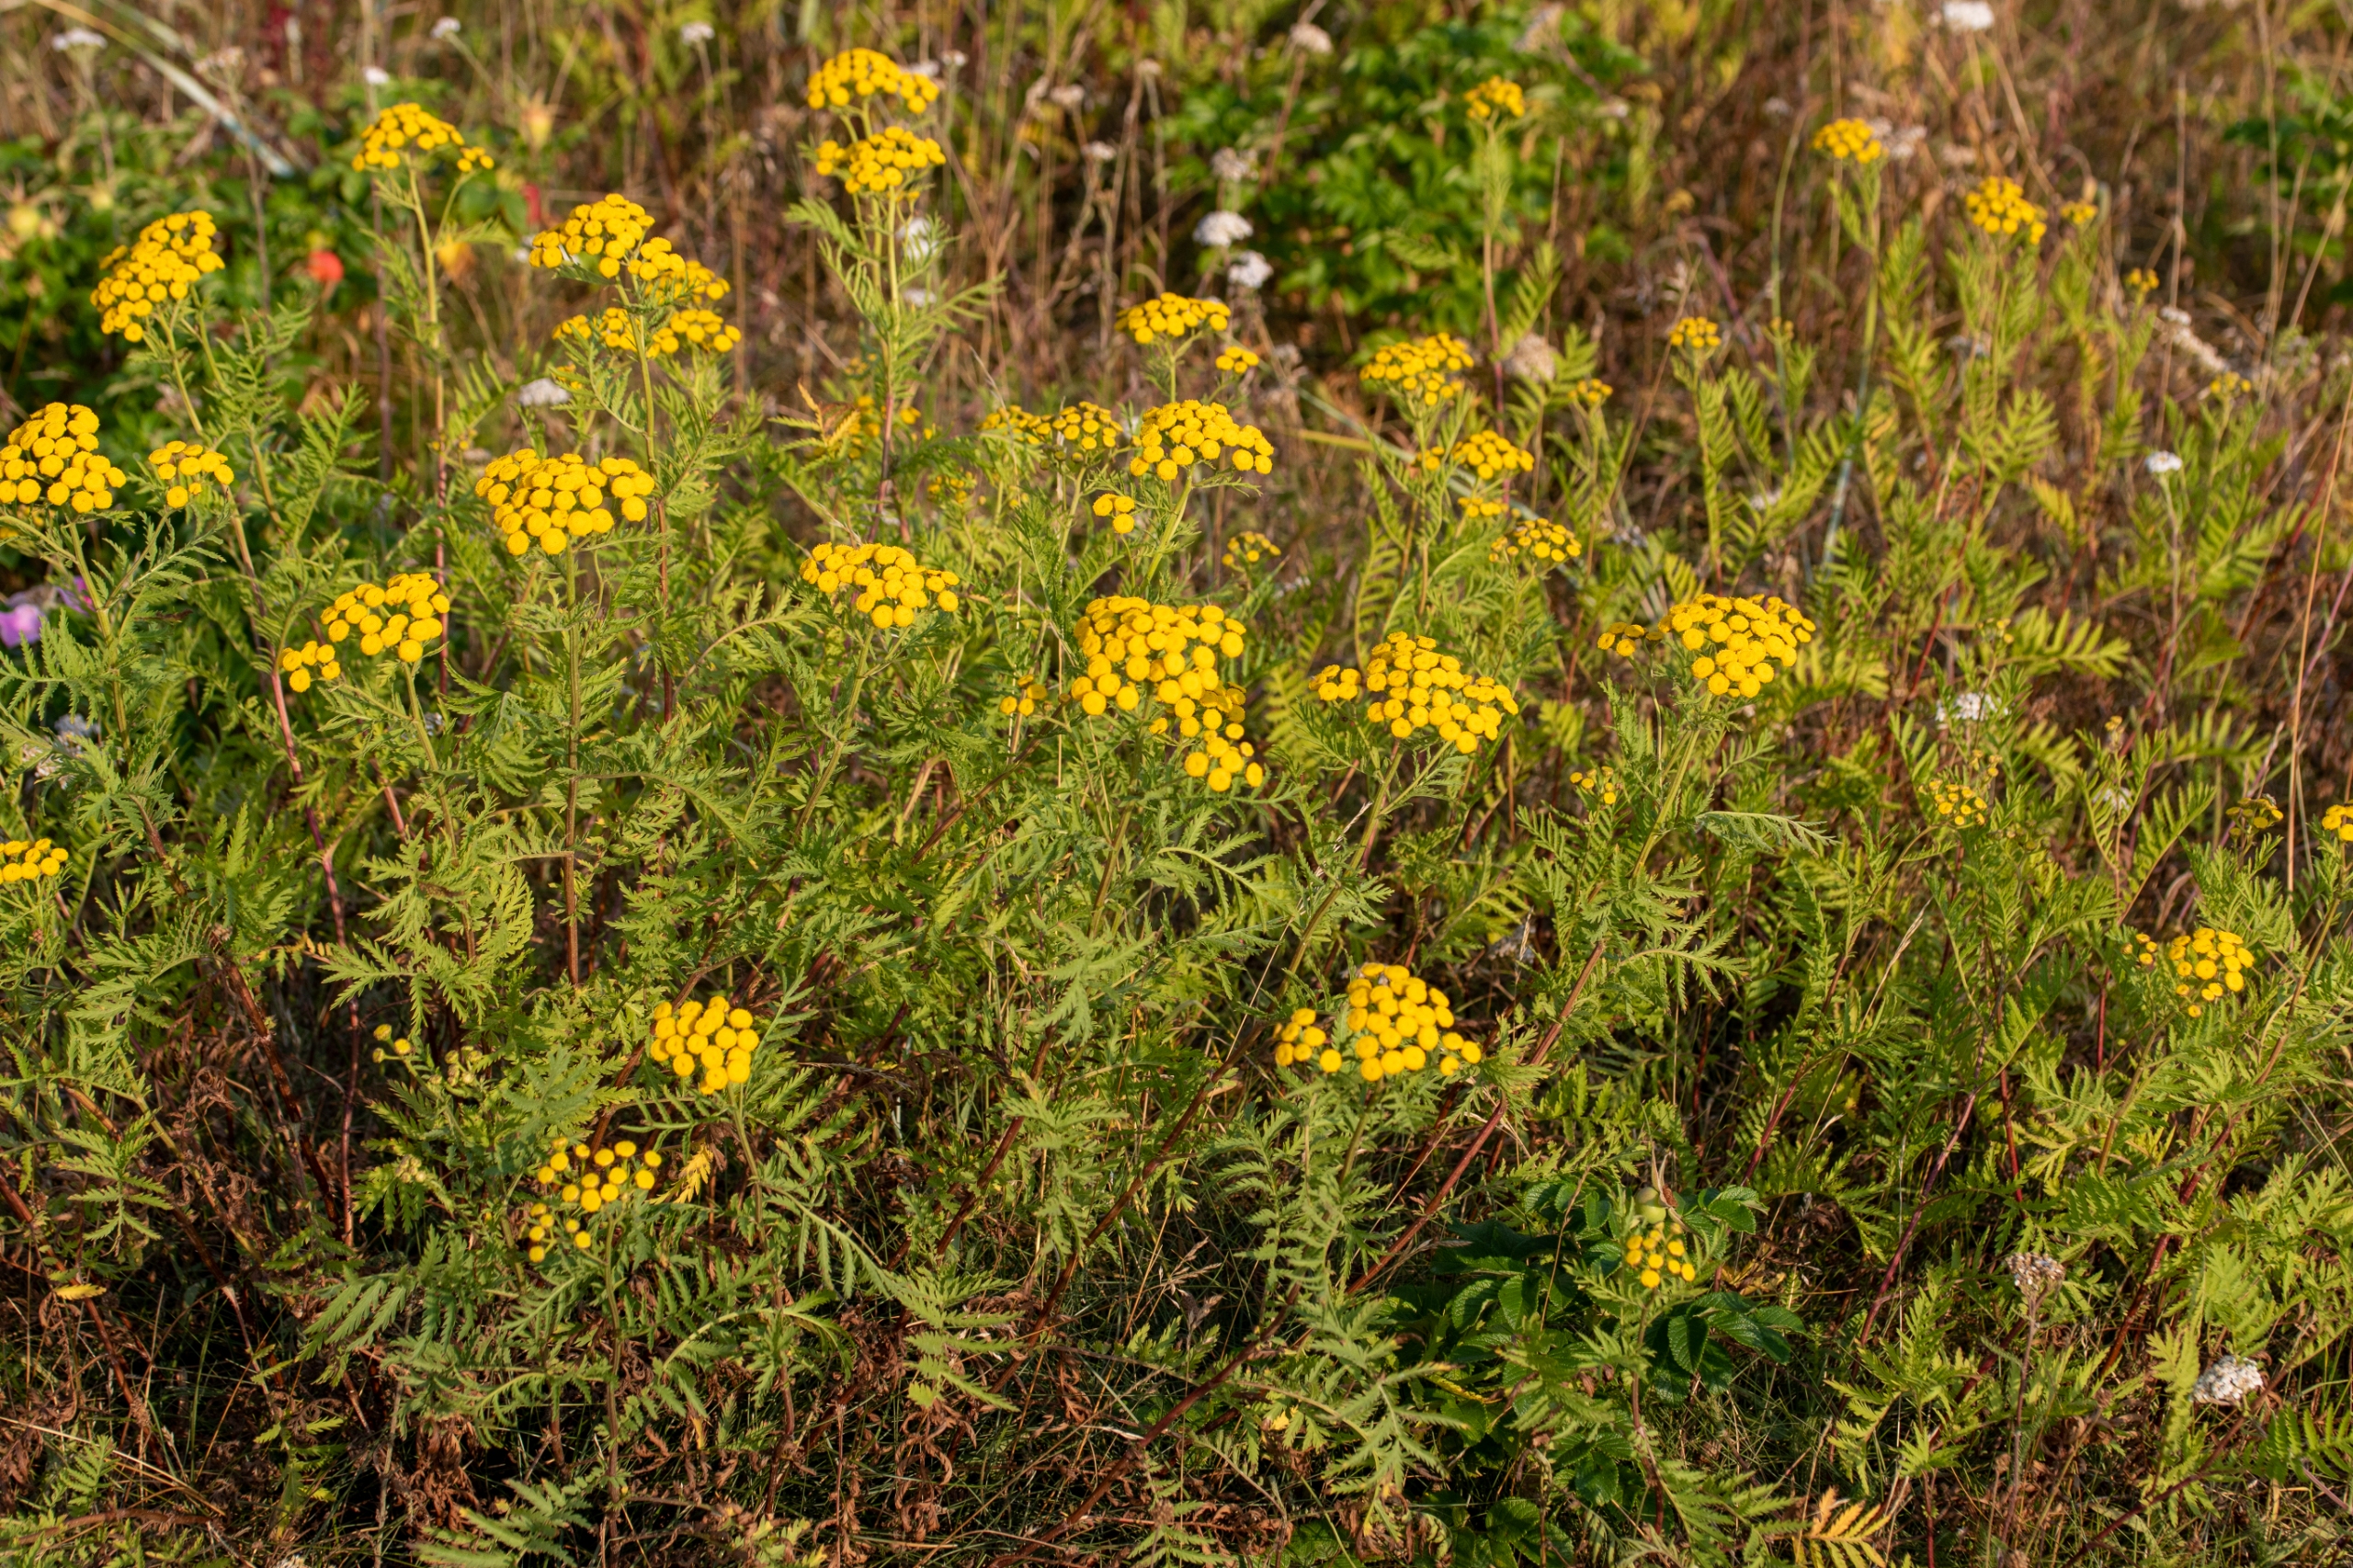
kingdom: Plantae
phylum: Tracheophyta
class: Magnoliopsida
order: Asterales
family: Asteraceae
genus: Tanacetum
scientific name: Tanacetum vulgare
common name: Rejnfan
